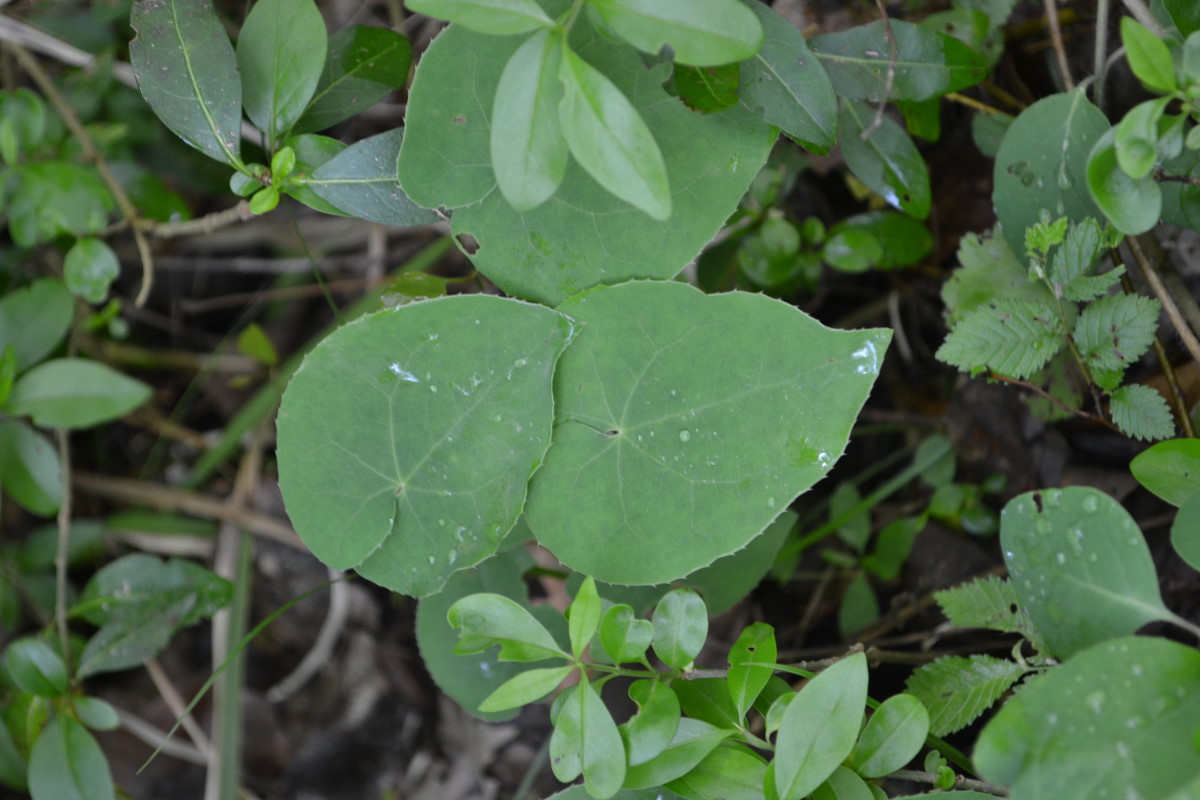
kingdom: Plantae
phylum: Tracheophyta
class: Magnoliopsida
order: Ranunculales
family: Berberidaceae
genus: Epimedium
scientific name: Epimedium pinnatum
